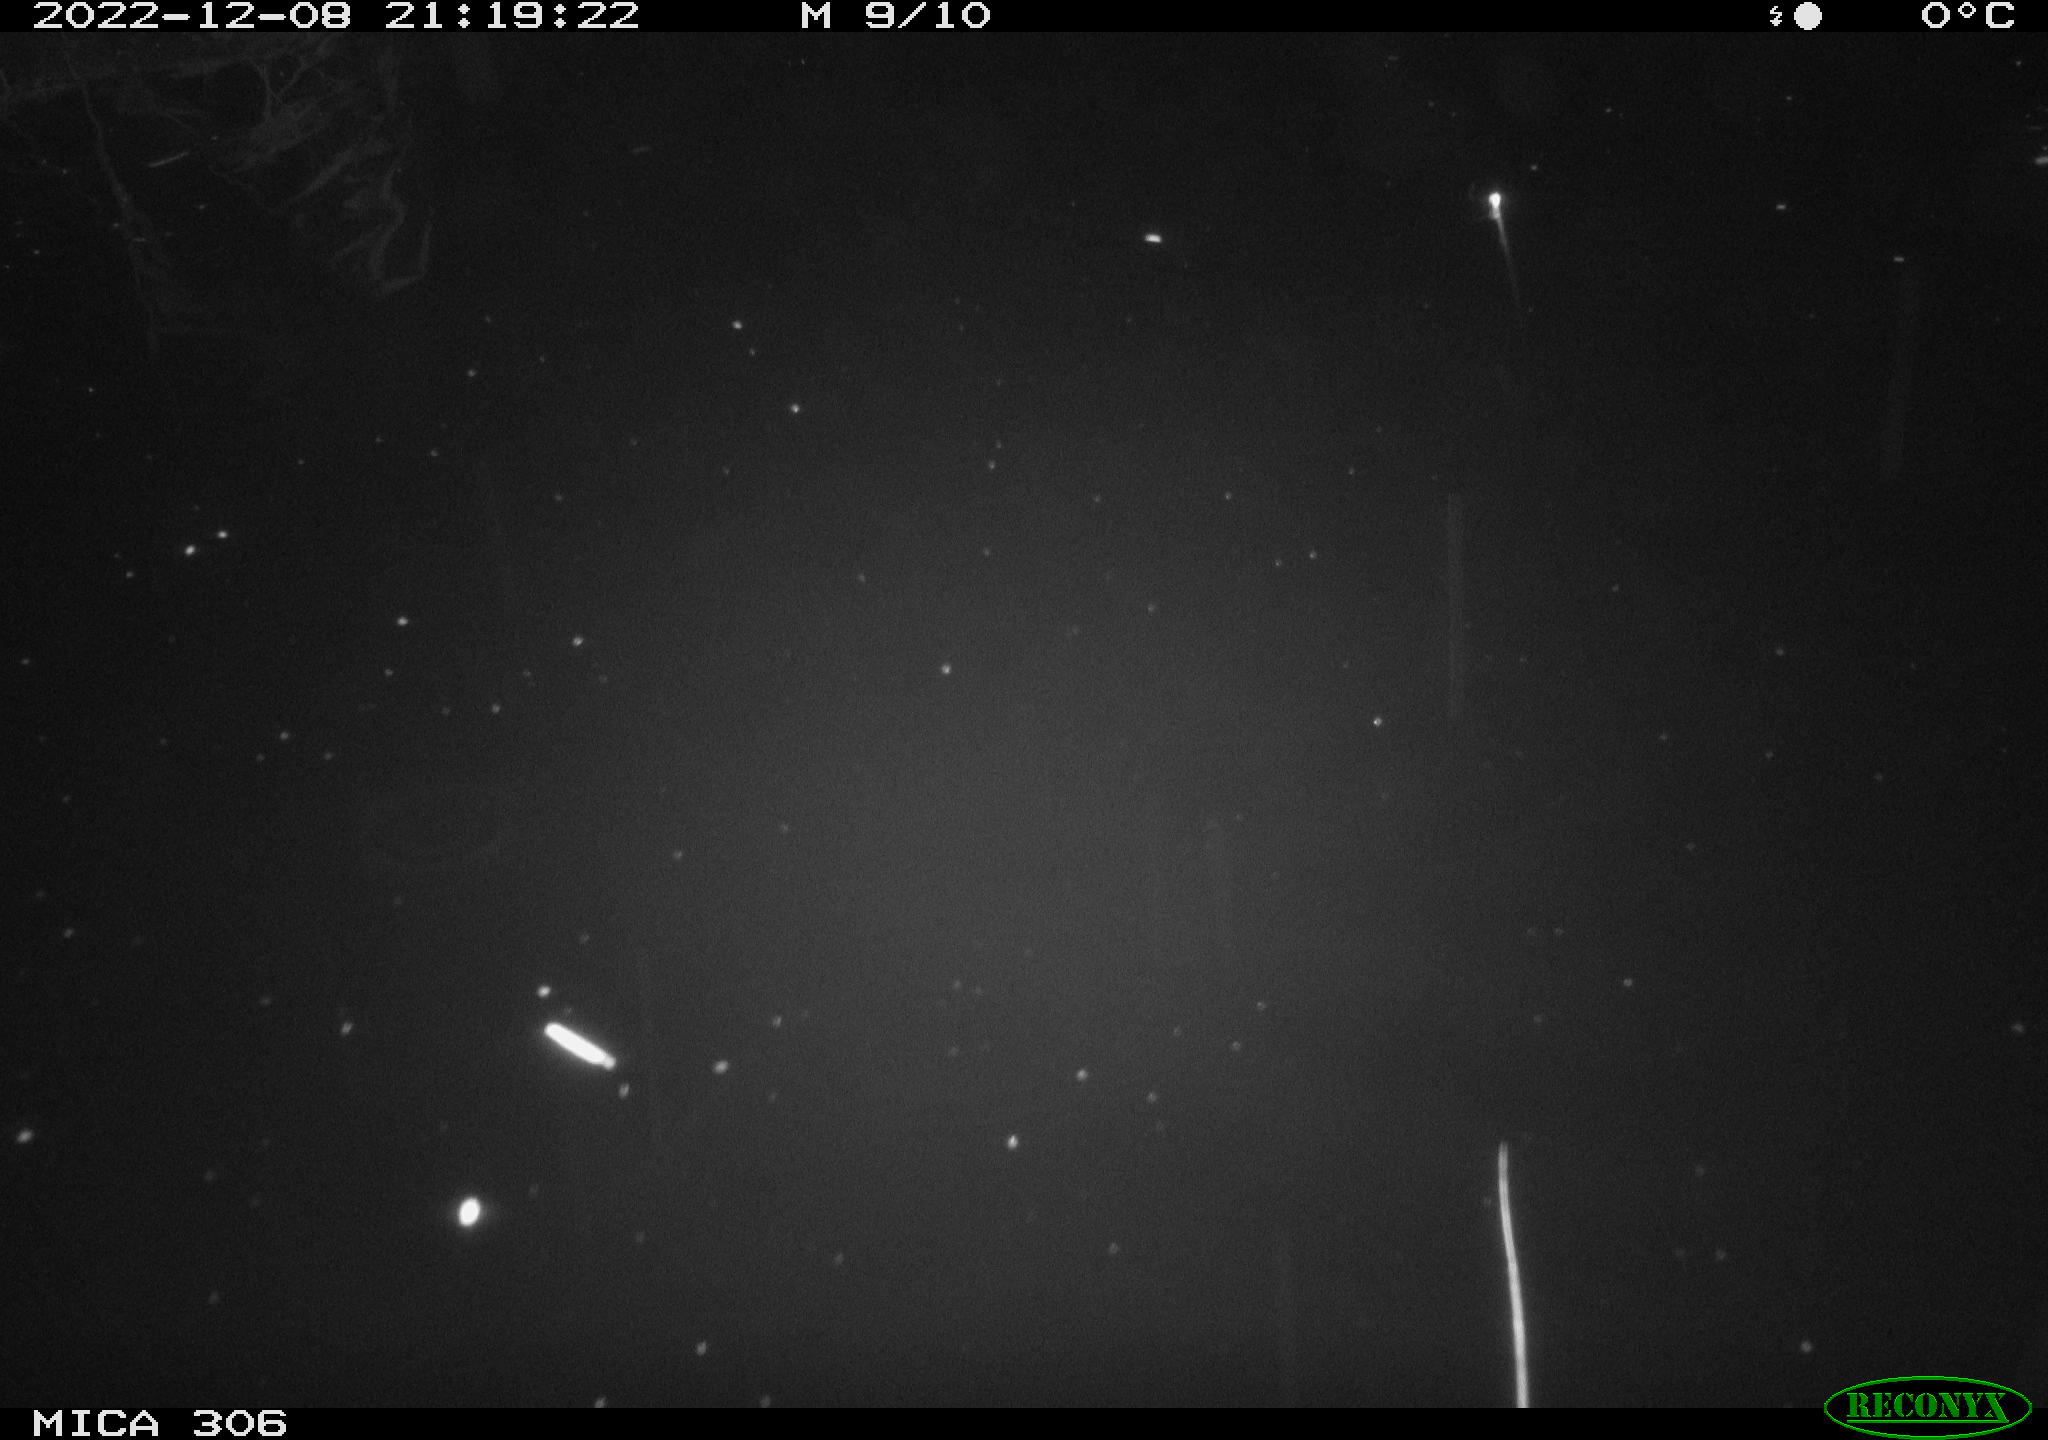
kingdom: Animalia
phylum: Chordata
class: Mammalia
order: Rodentia
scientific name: Rodentia
